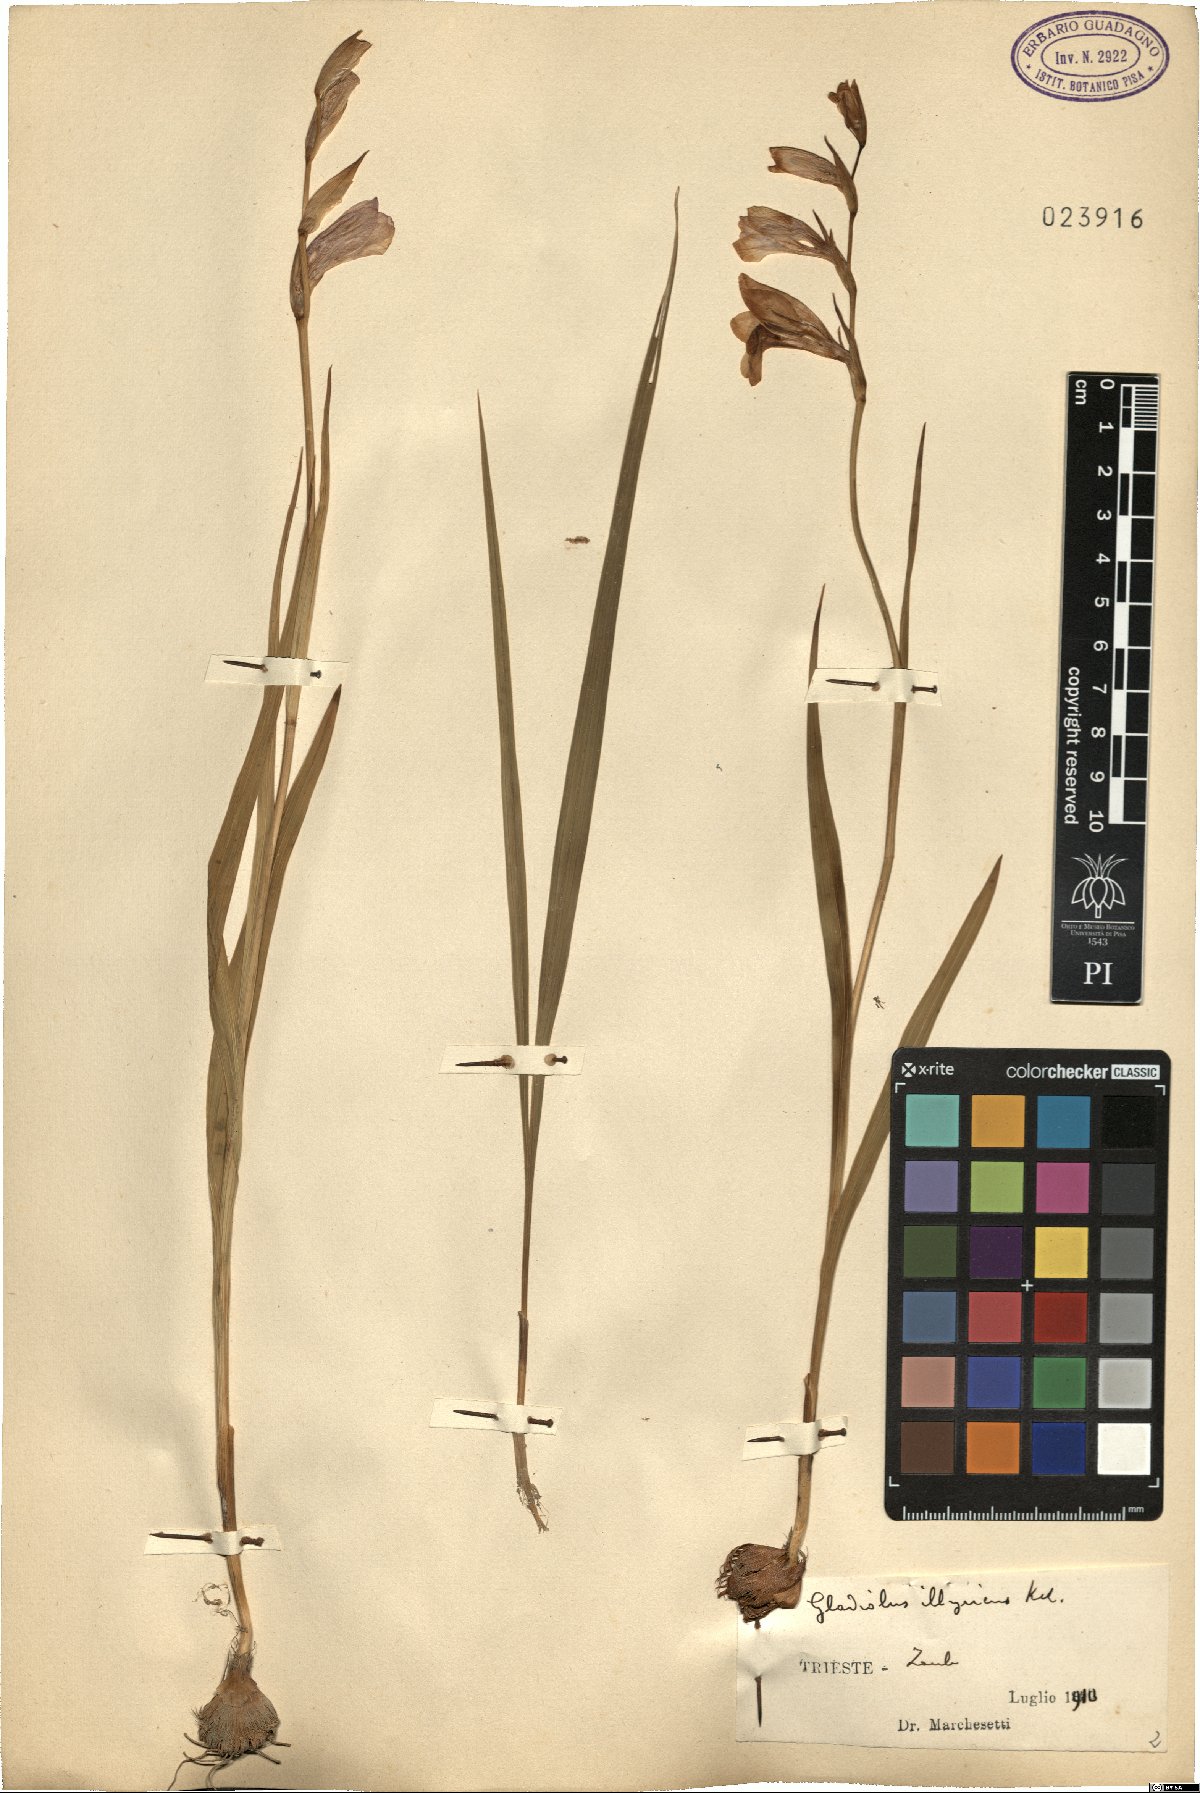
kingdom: Plantae
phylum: Tracheophyta
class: Liliopsida
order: Asparagales
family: Iridaceae
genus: Gladiolus
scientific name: Gladiolus illyricus
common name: Wild gladiolus
